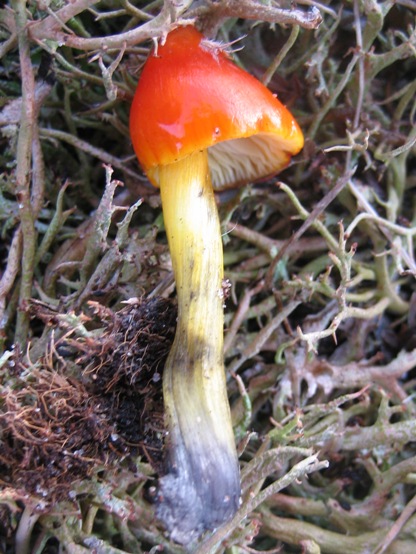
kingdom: Fungi
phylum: Basidiomycota
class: Agaricomycetes
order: Agaricales
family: Hygrophoraceae
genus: Hygrocybe
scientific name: Hygrocybe conica
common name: kegle-vokshat
